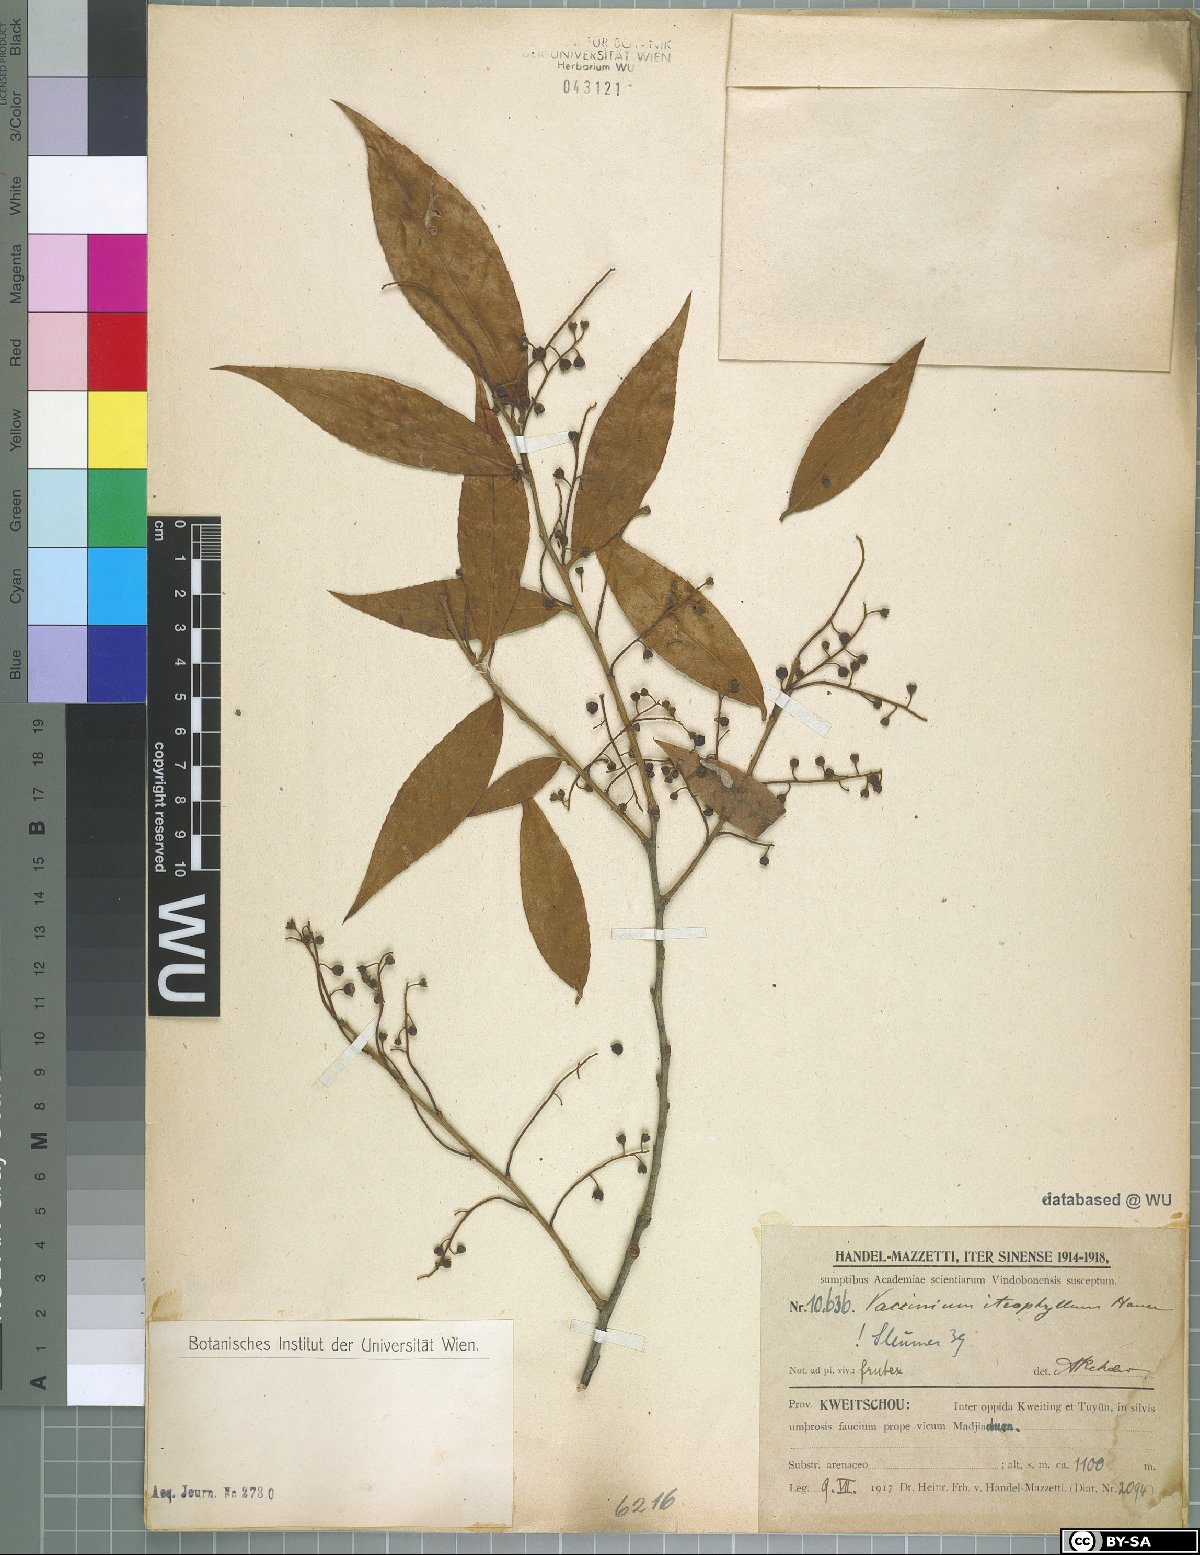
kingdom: Plantae
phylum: Tracheophyta
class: Magnoliopsida
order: Ericales
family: Ericaceae
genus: Vaccinium
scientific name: Vaccinium iteophyllum
